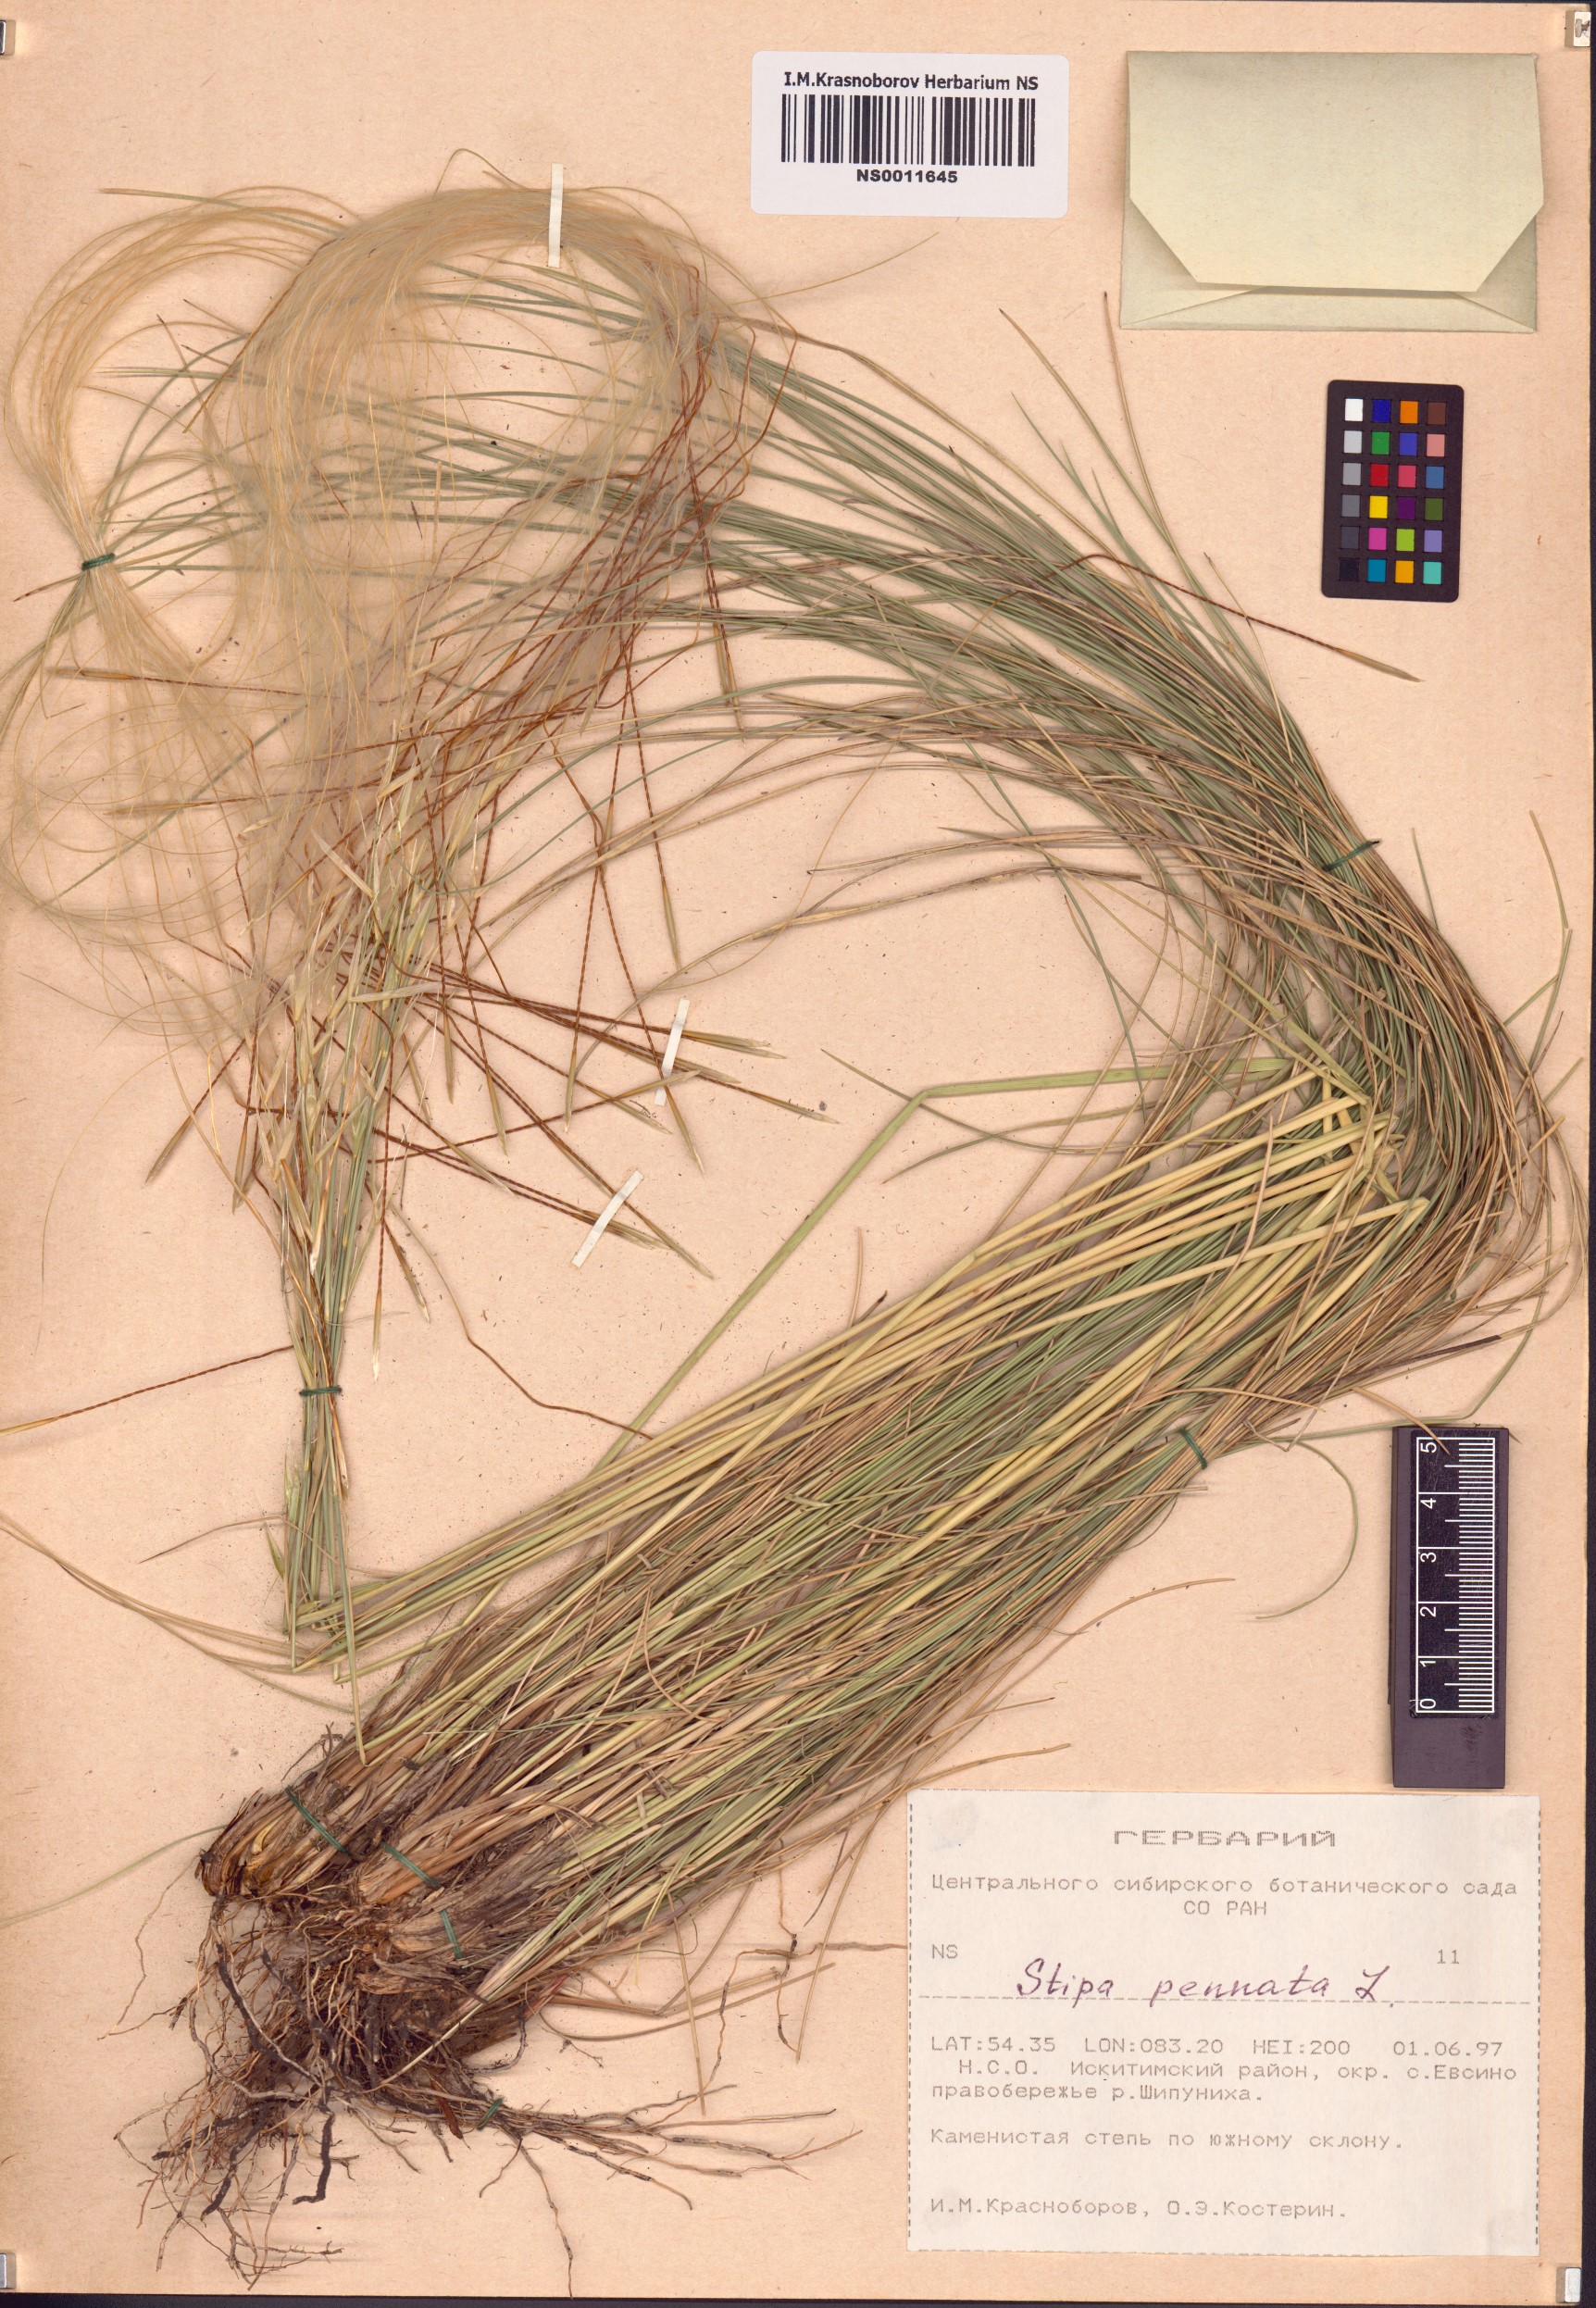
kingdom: Plantae
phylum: Tracheophyta
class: Liliopsida
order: Poales
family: Poaceae
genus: Stipa
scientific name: Stipa pennata
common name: European feather grass
